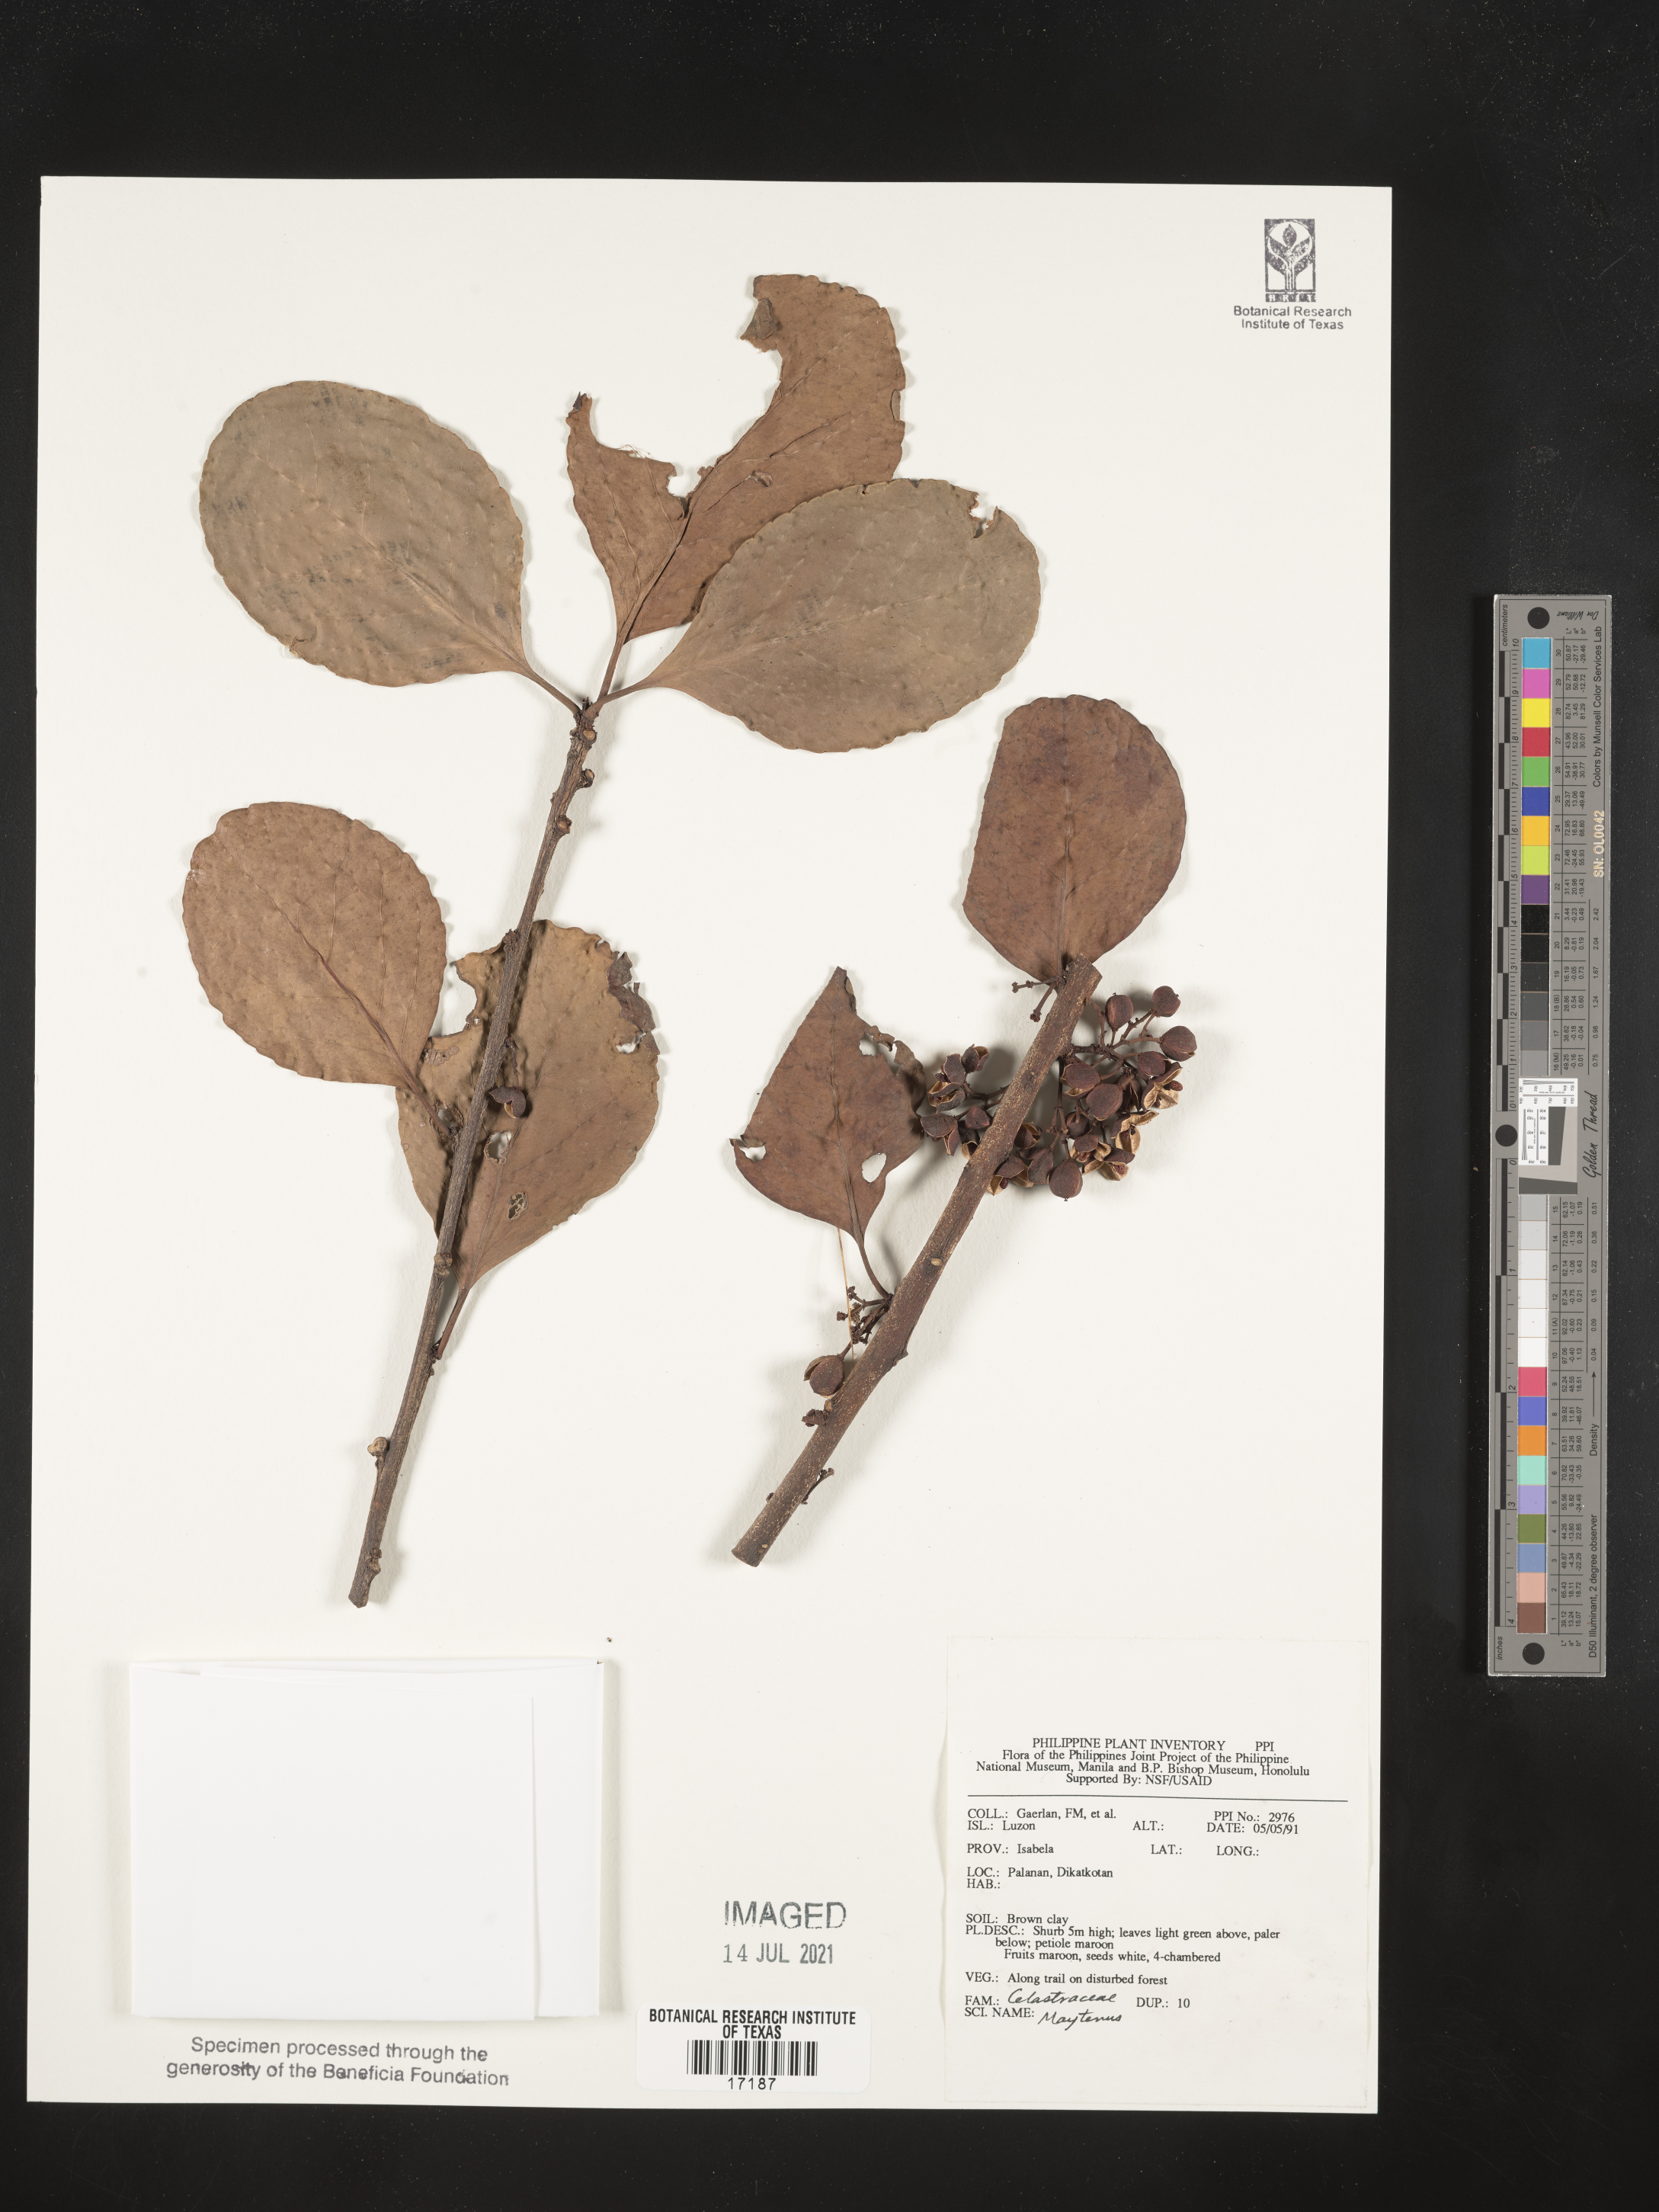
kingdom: Plantae
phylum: Tracheophyta
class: Magnoliopsida
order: Celastrales
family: Celastraceae
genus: Maytenus
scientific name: Maytenus
